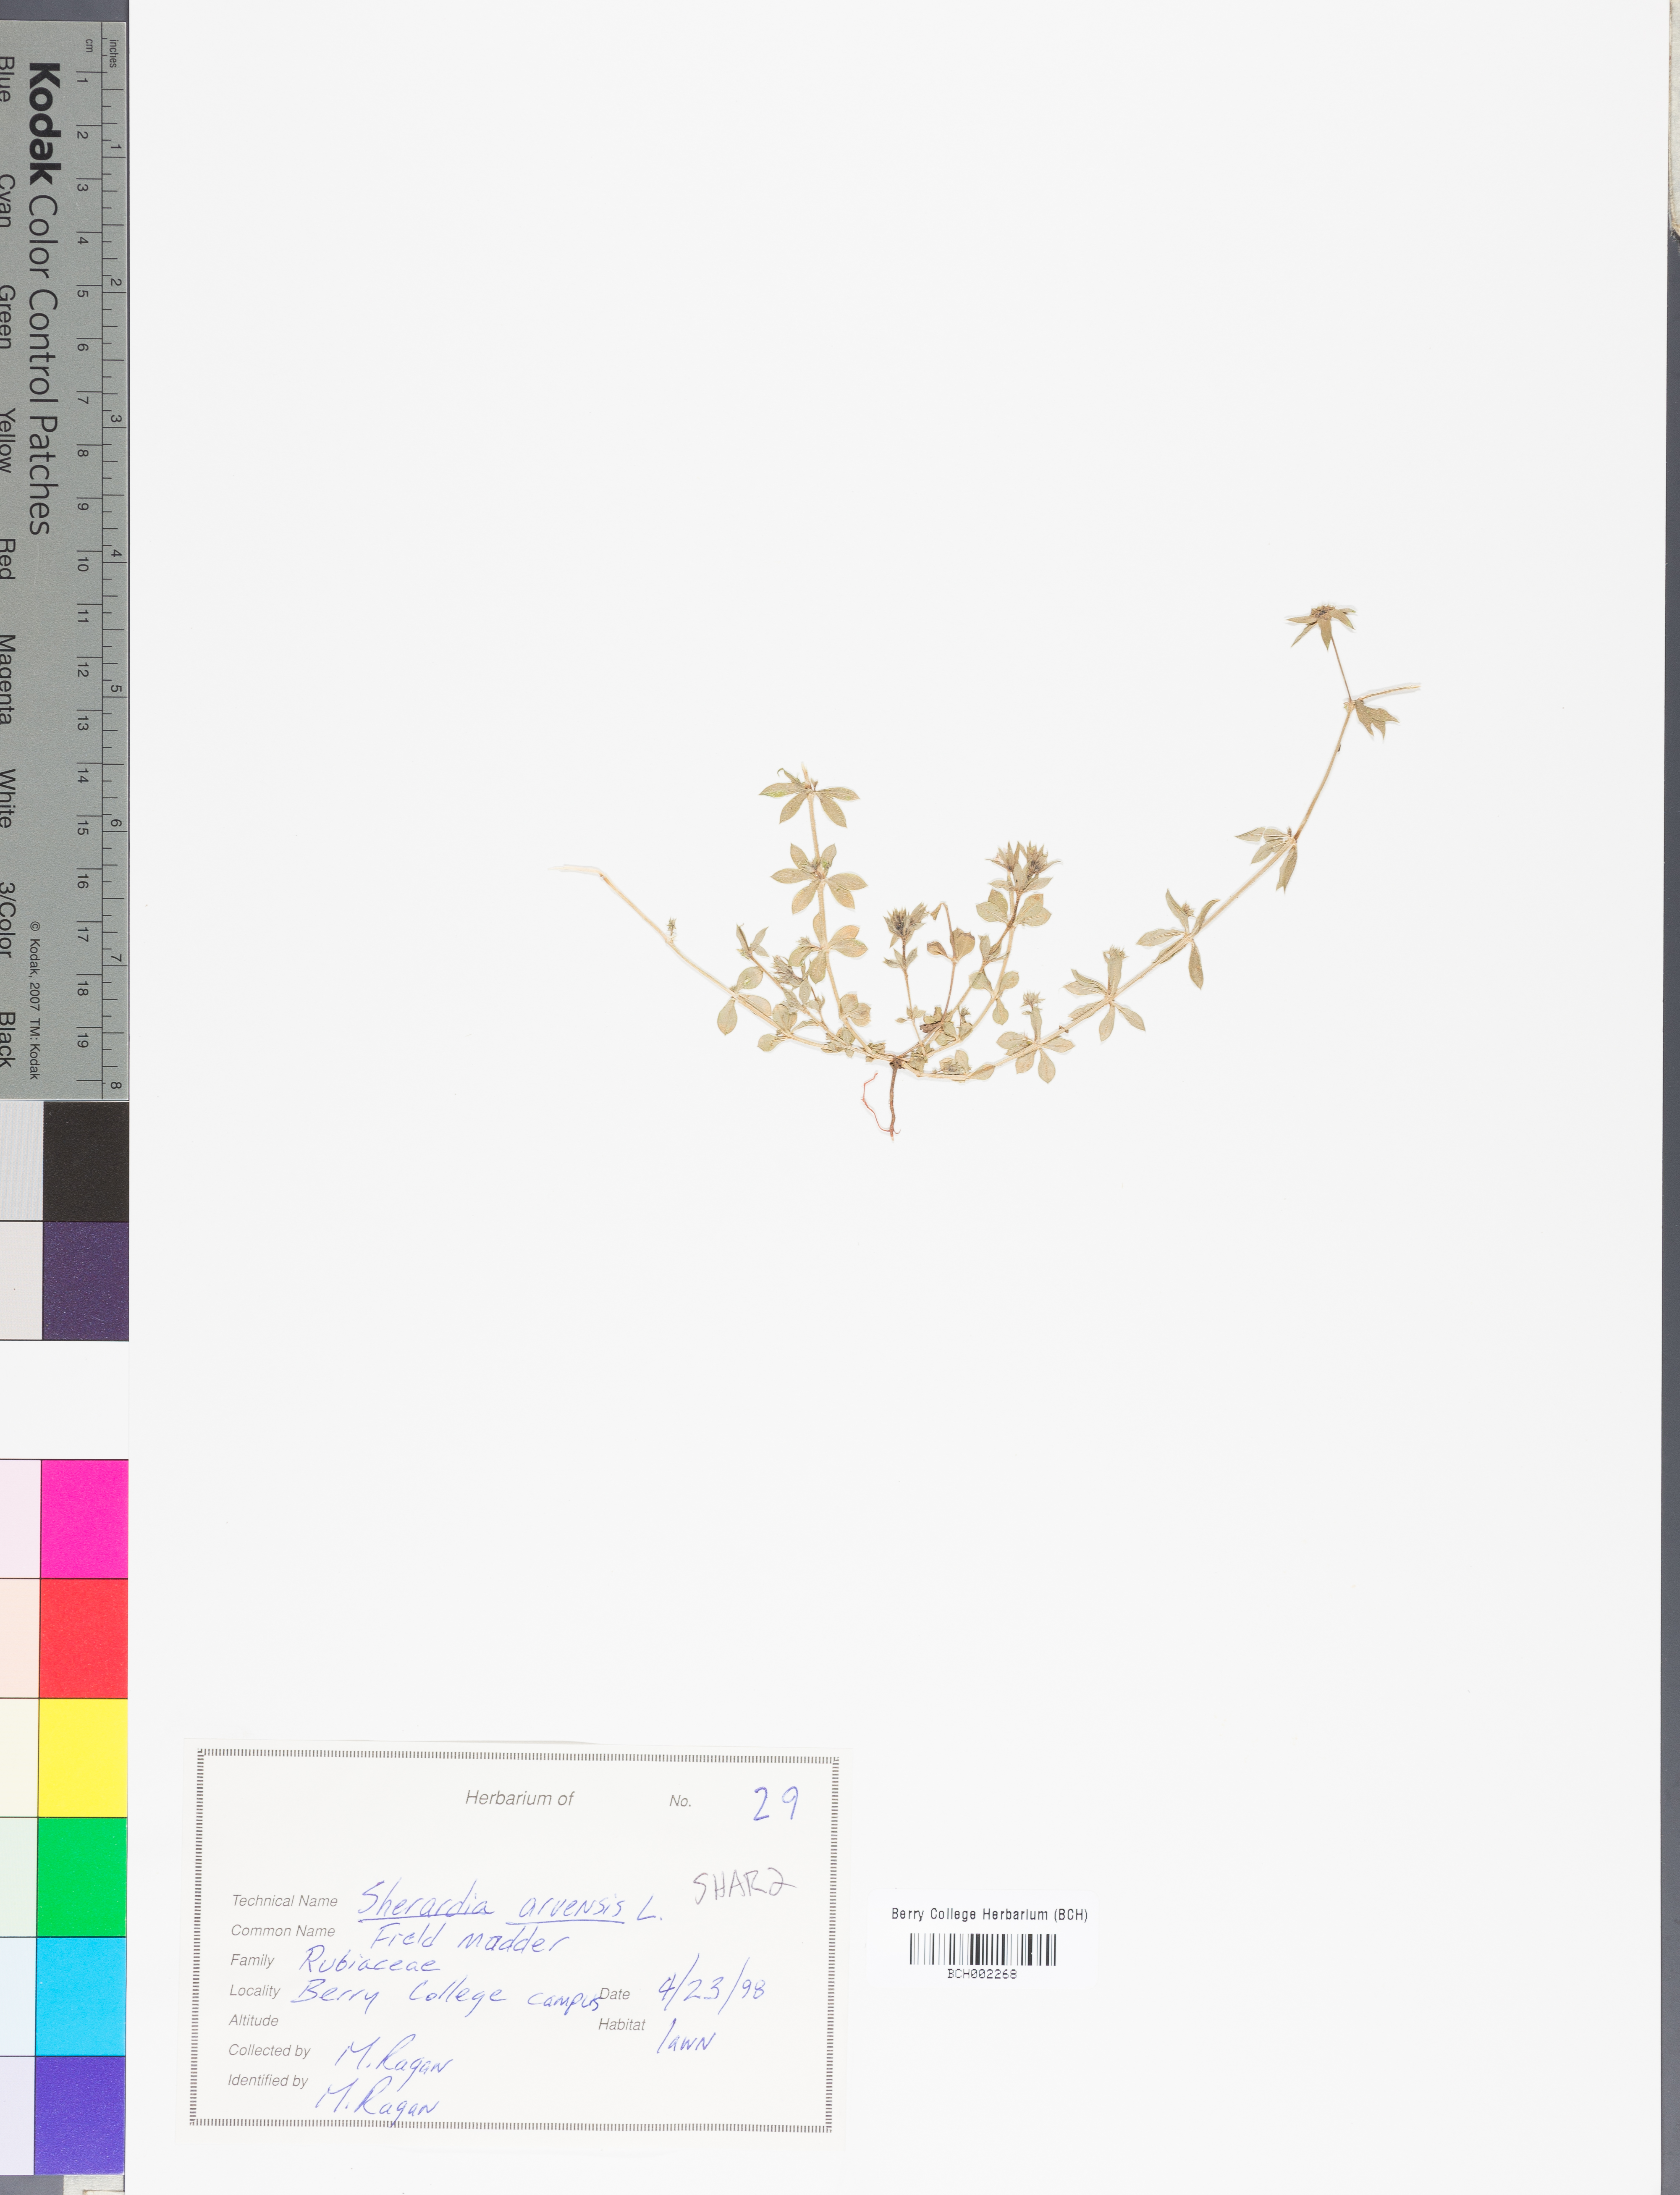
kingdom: Plantae
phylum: Tracheophyta
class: Magnoliopsida
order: Gentianales
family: Rubiaceae
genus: Sherardia
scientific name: Sherardia arvensis
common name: Field madder
